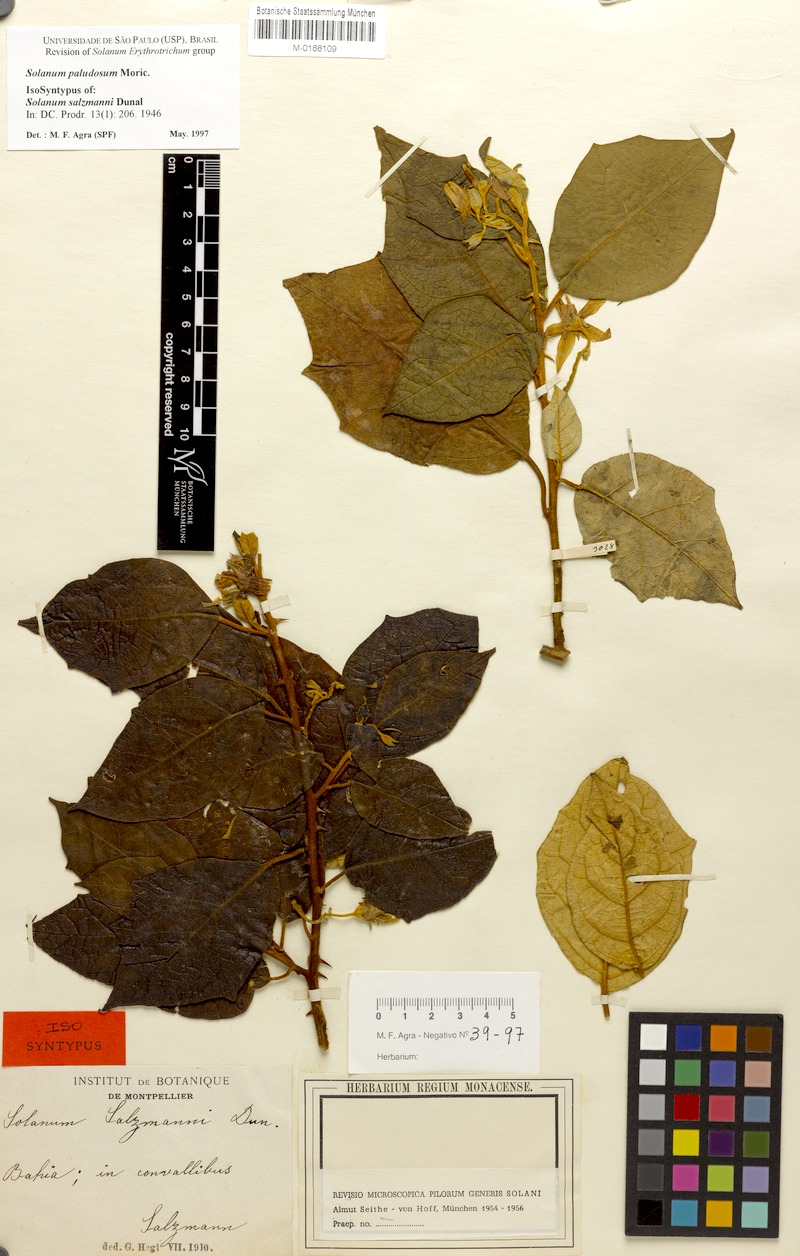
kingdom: Plantae
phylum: Tracheophyta
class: Magnoliopsida
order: Solanales
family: Solanaceae
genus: Solanum
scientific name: Solanum paludosum
